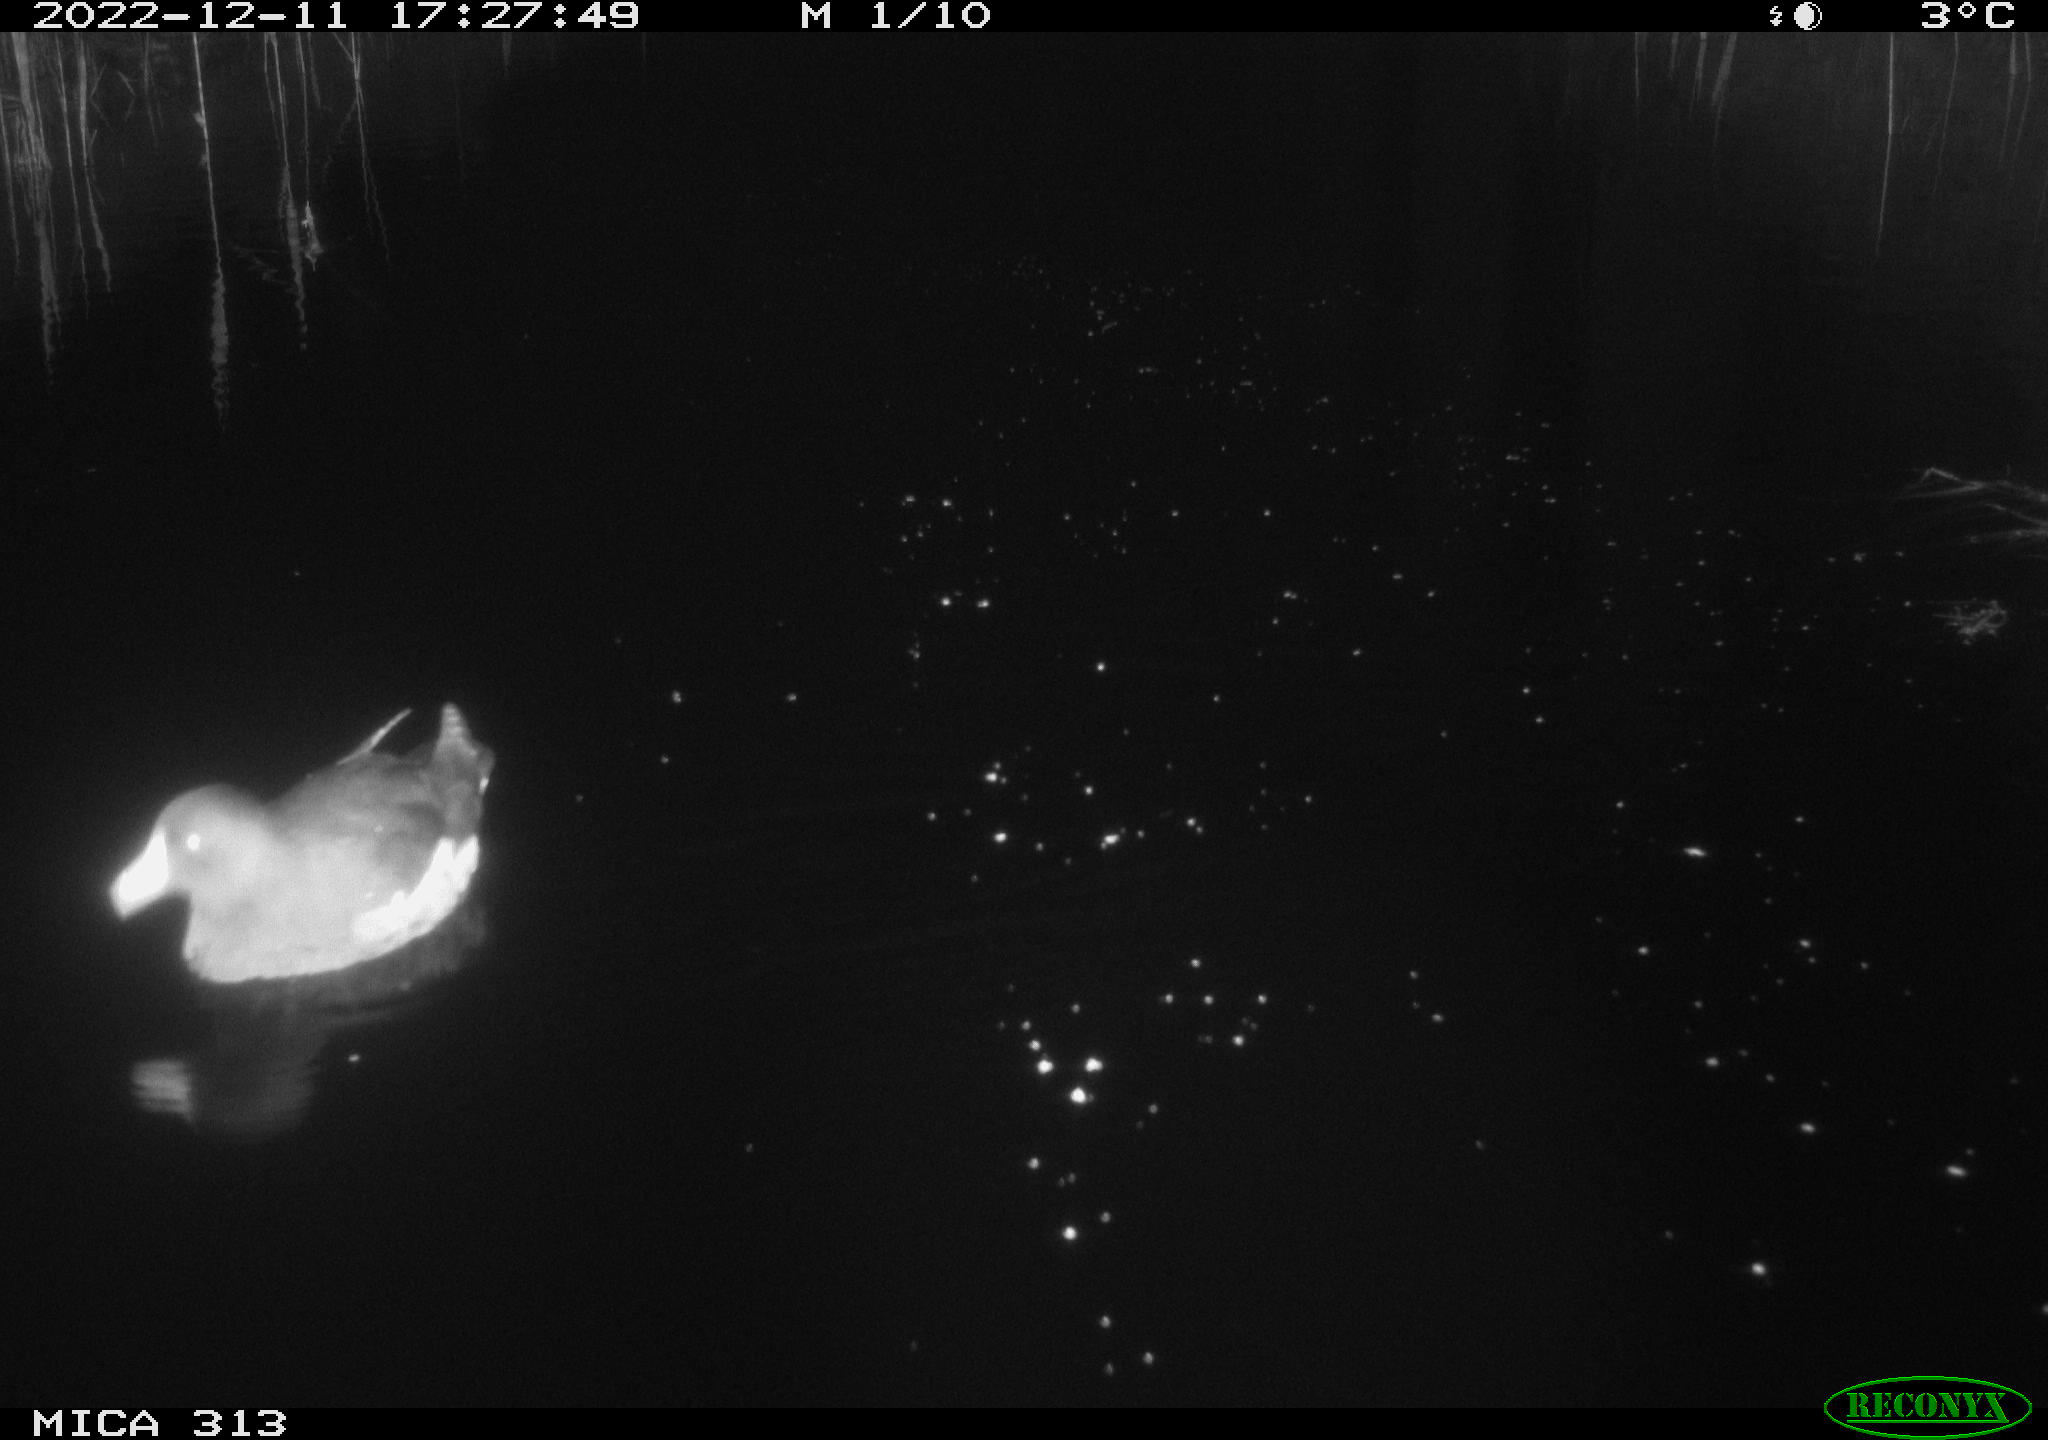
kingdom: Animalia
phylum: Chordata
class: Aves
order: Gruiformes
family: Rallidae
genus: Gallinula
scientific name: Gallinula chloropus
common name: Common moorhen
